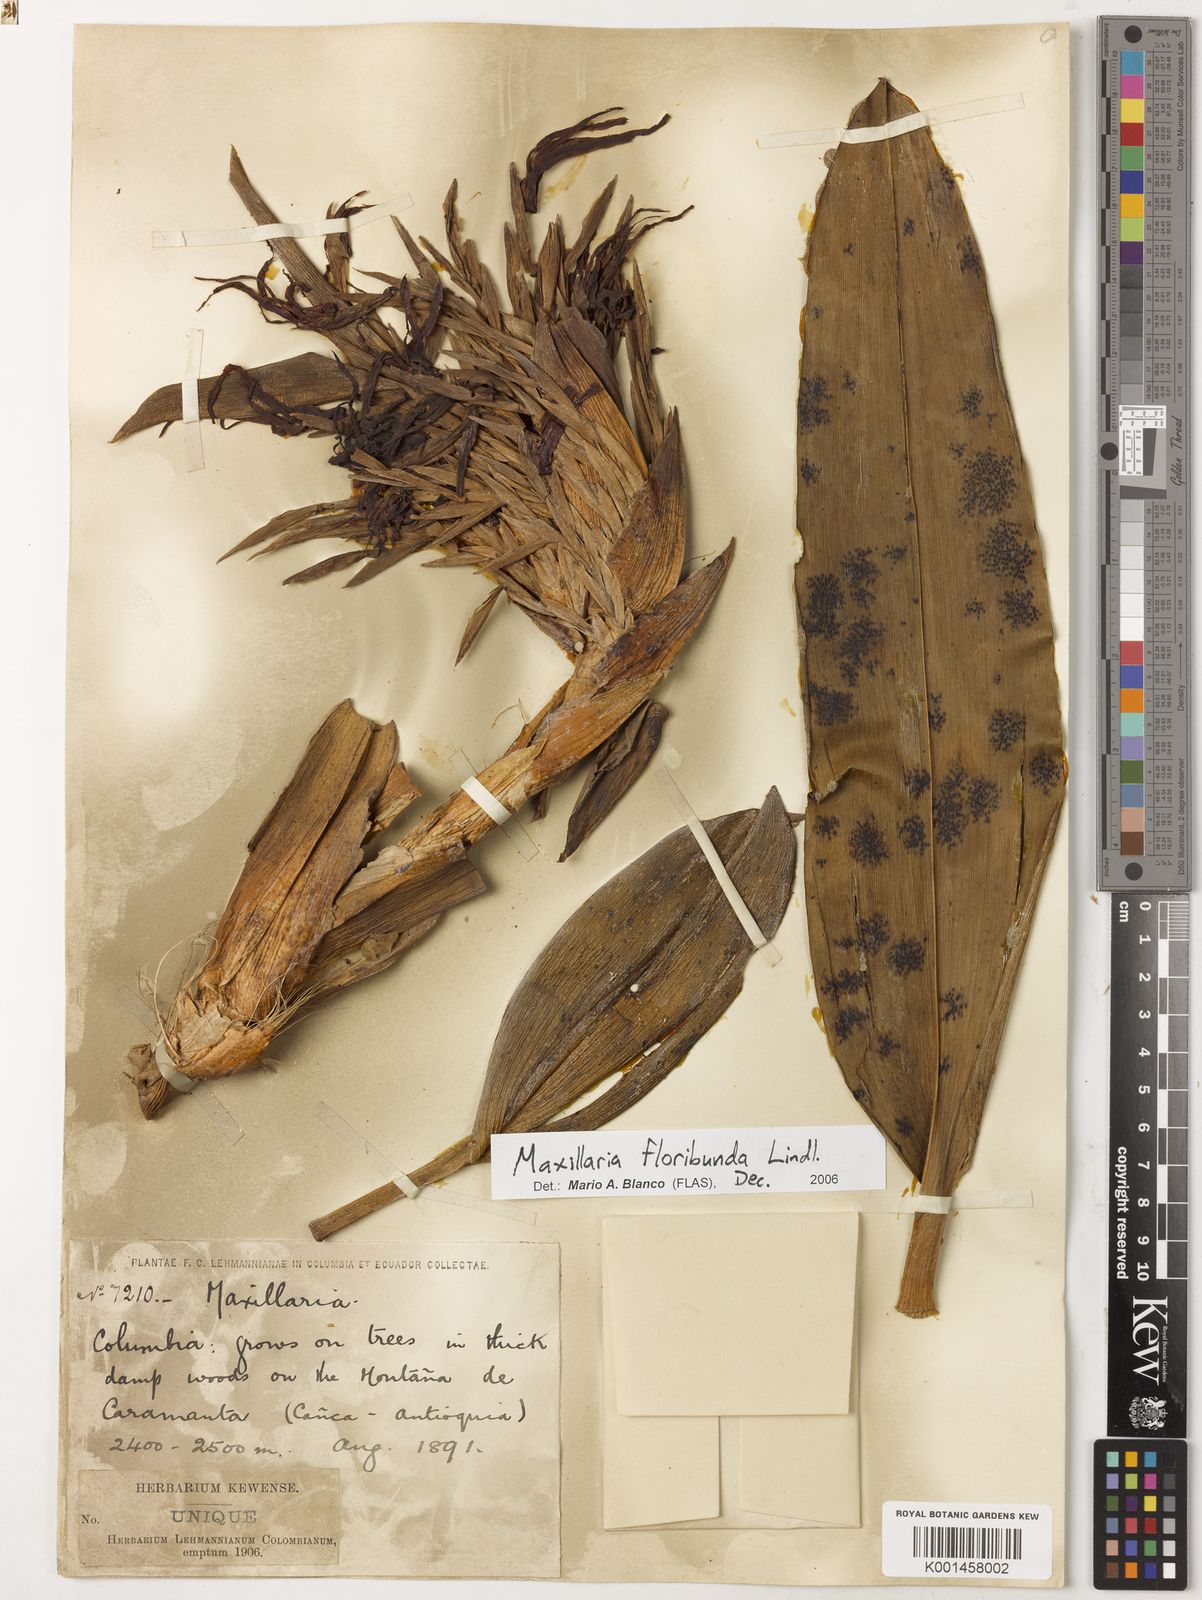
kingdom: Plantae
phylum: Tracheophyta
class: Liliopsida
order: Asparagales
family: Orchidaceae
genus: Maxillaria
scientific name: Maxillaria floribunda
